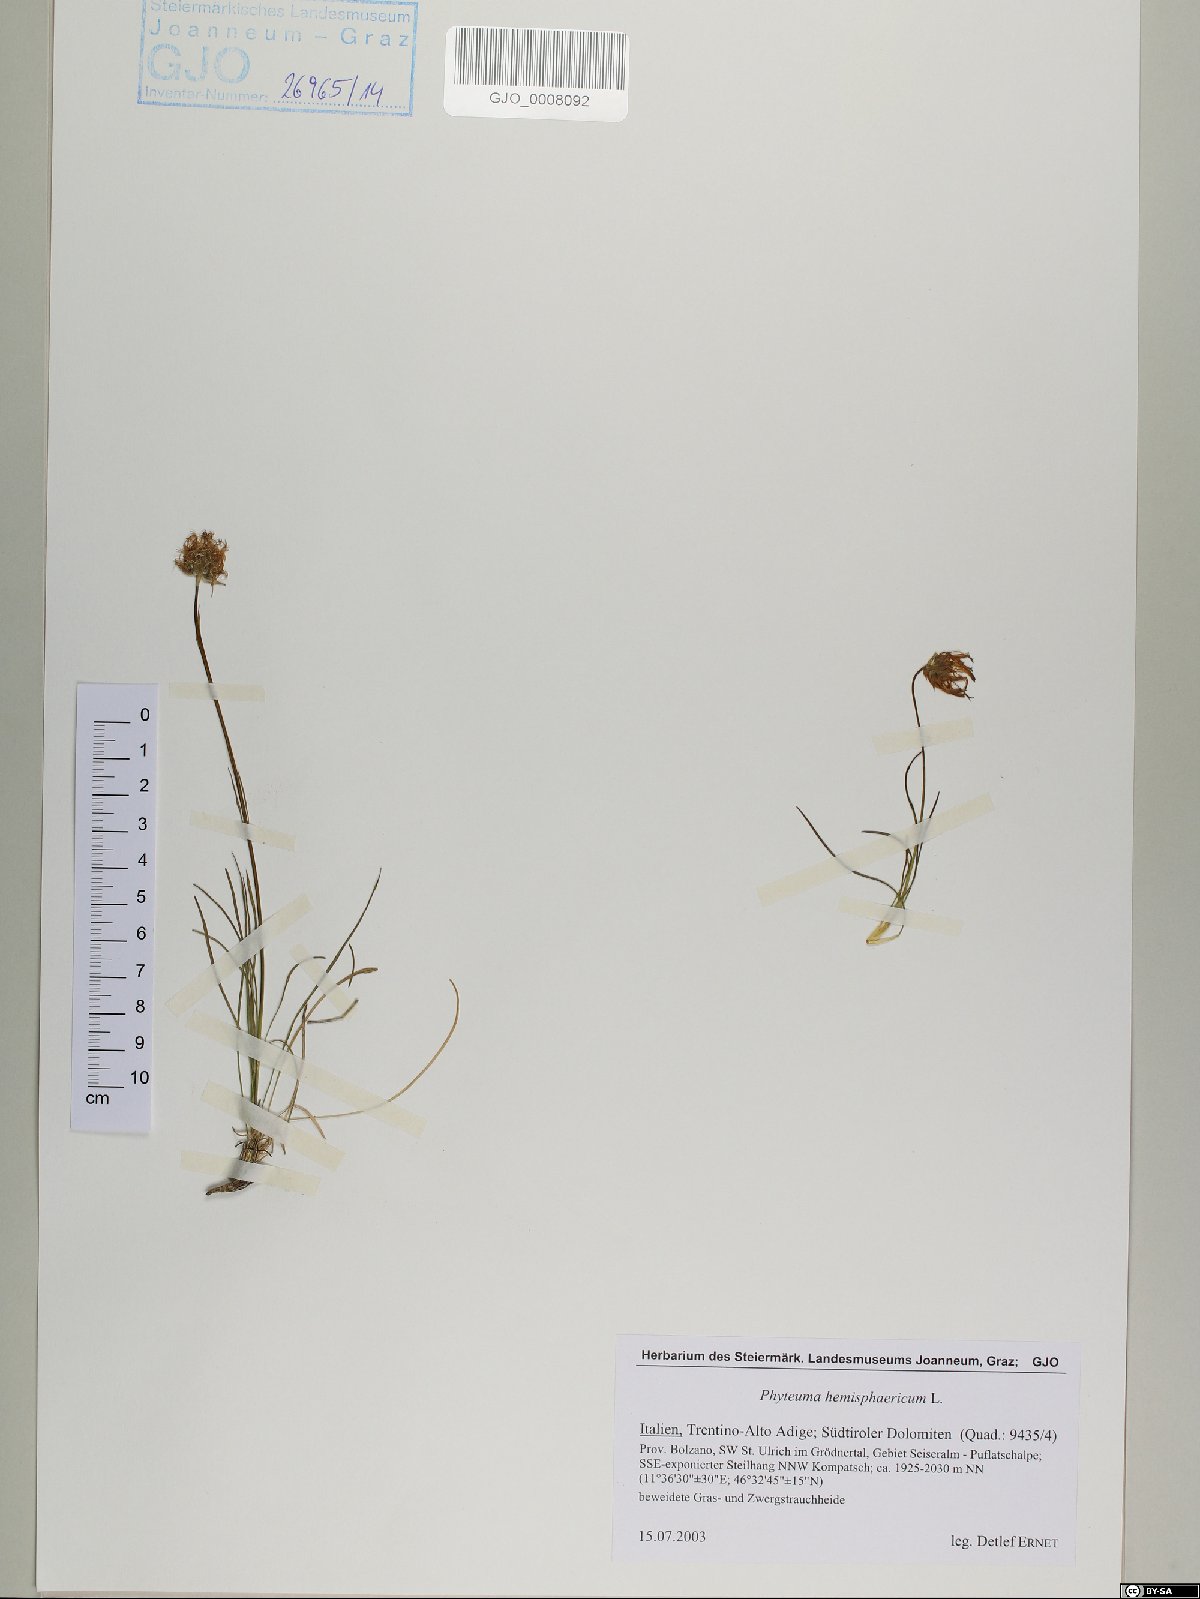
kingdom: Plantae
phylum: Tracheophyta
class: Magnoliopsida
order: Asterales
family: Campanulaceae
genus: Phyteuma
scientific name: Phyteuma hemisphaericum
